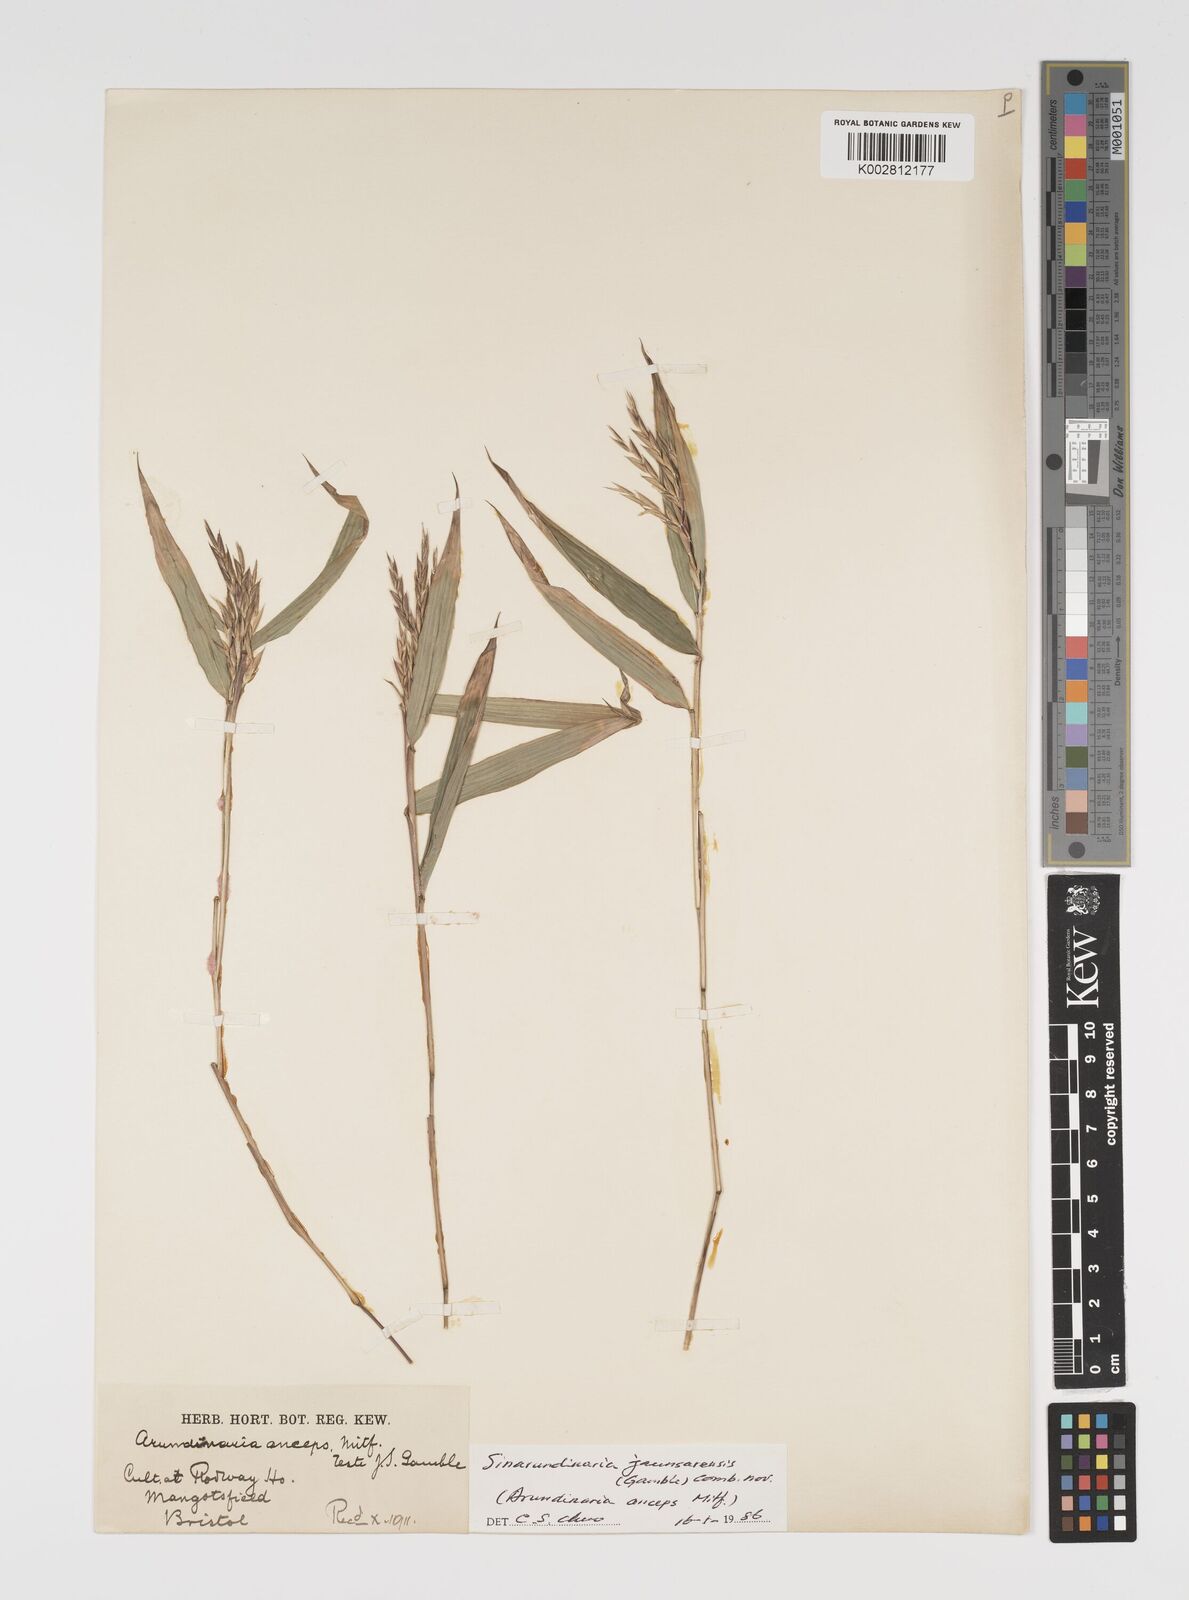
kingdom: Plantae
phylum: Tracheophyta
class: Liliopsida
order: Poales
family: Poaceae
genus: Yushania
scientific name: Yushania anceps
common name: Indian fountain-bamboo
